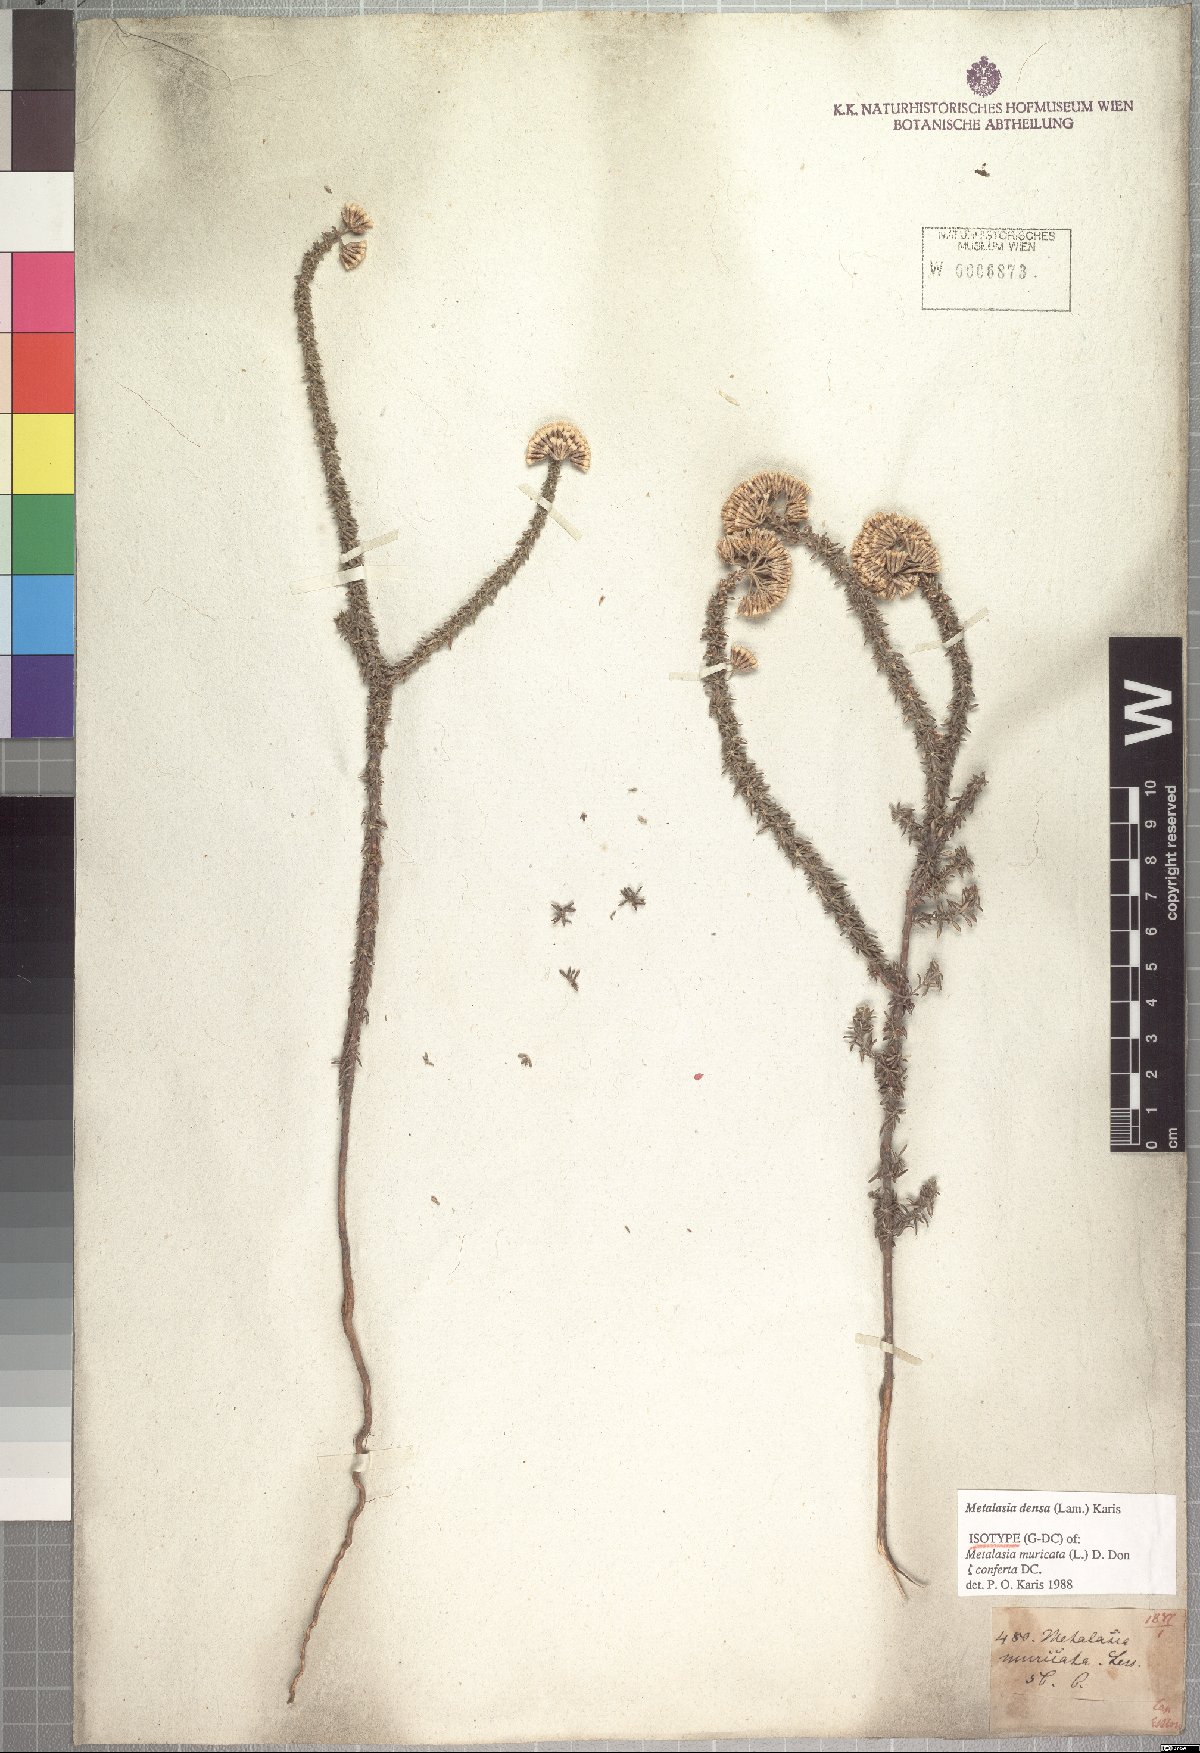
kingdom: Plantae
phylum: Tracheophyta
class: Magnoliopsida
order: Asterales
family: Asteraceae
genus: Metalasia
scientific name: Metalasia densa
